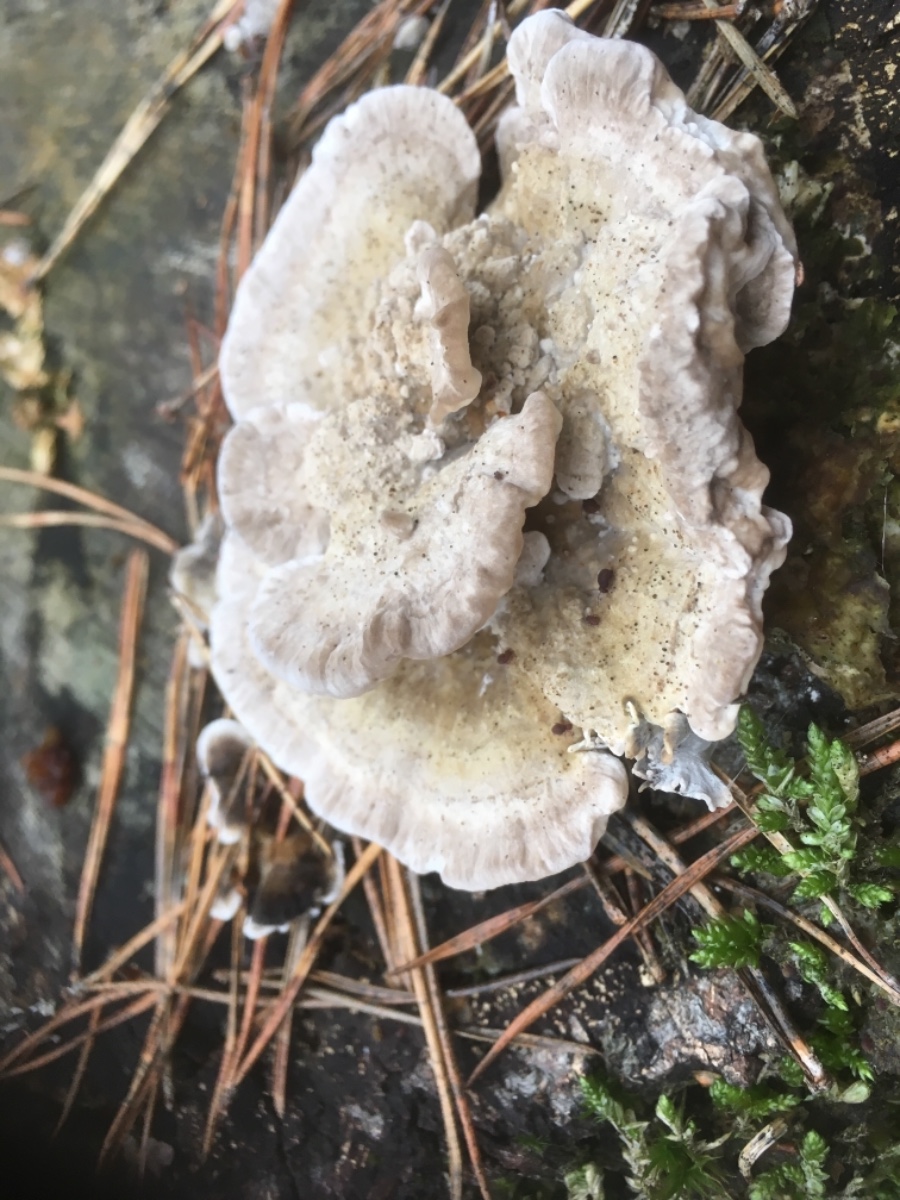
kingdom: Fungi
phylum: Basidiomycota
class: Agaricomycetes
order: Polyporales
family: Polyporaceae
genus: Trametes
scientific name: Trametes hirsuta
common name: håret læderporesvamp
